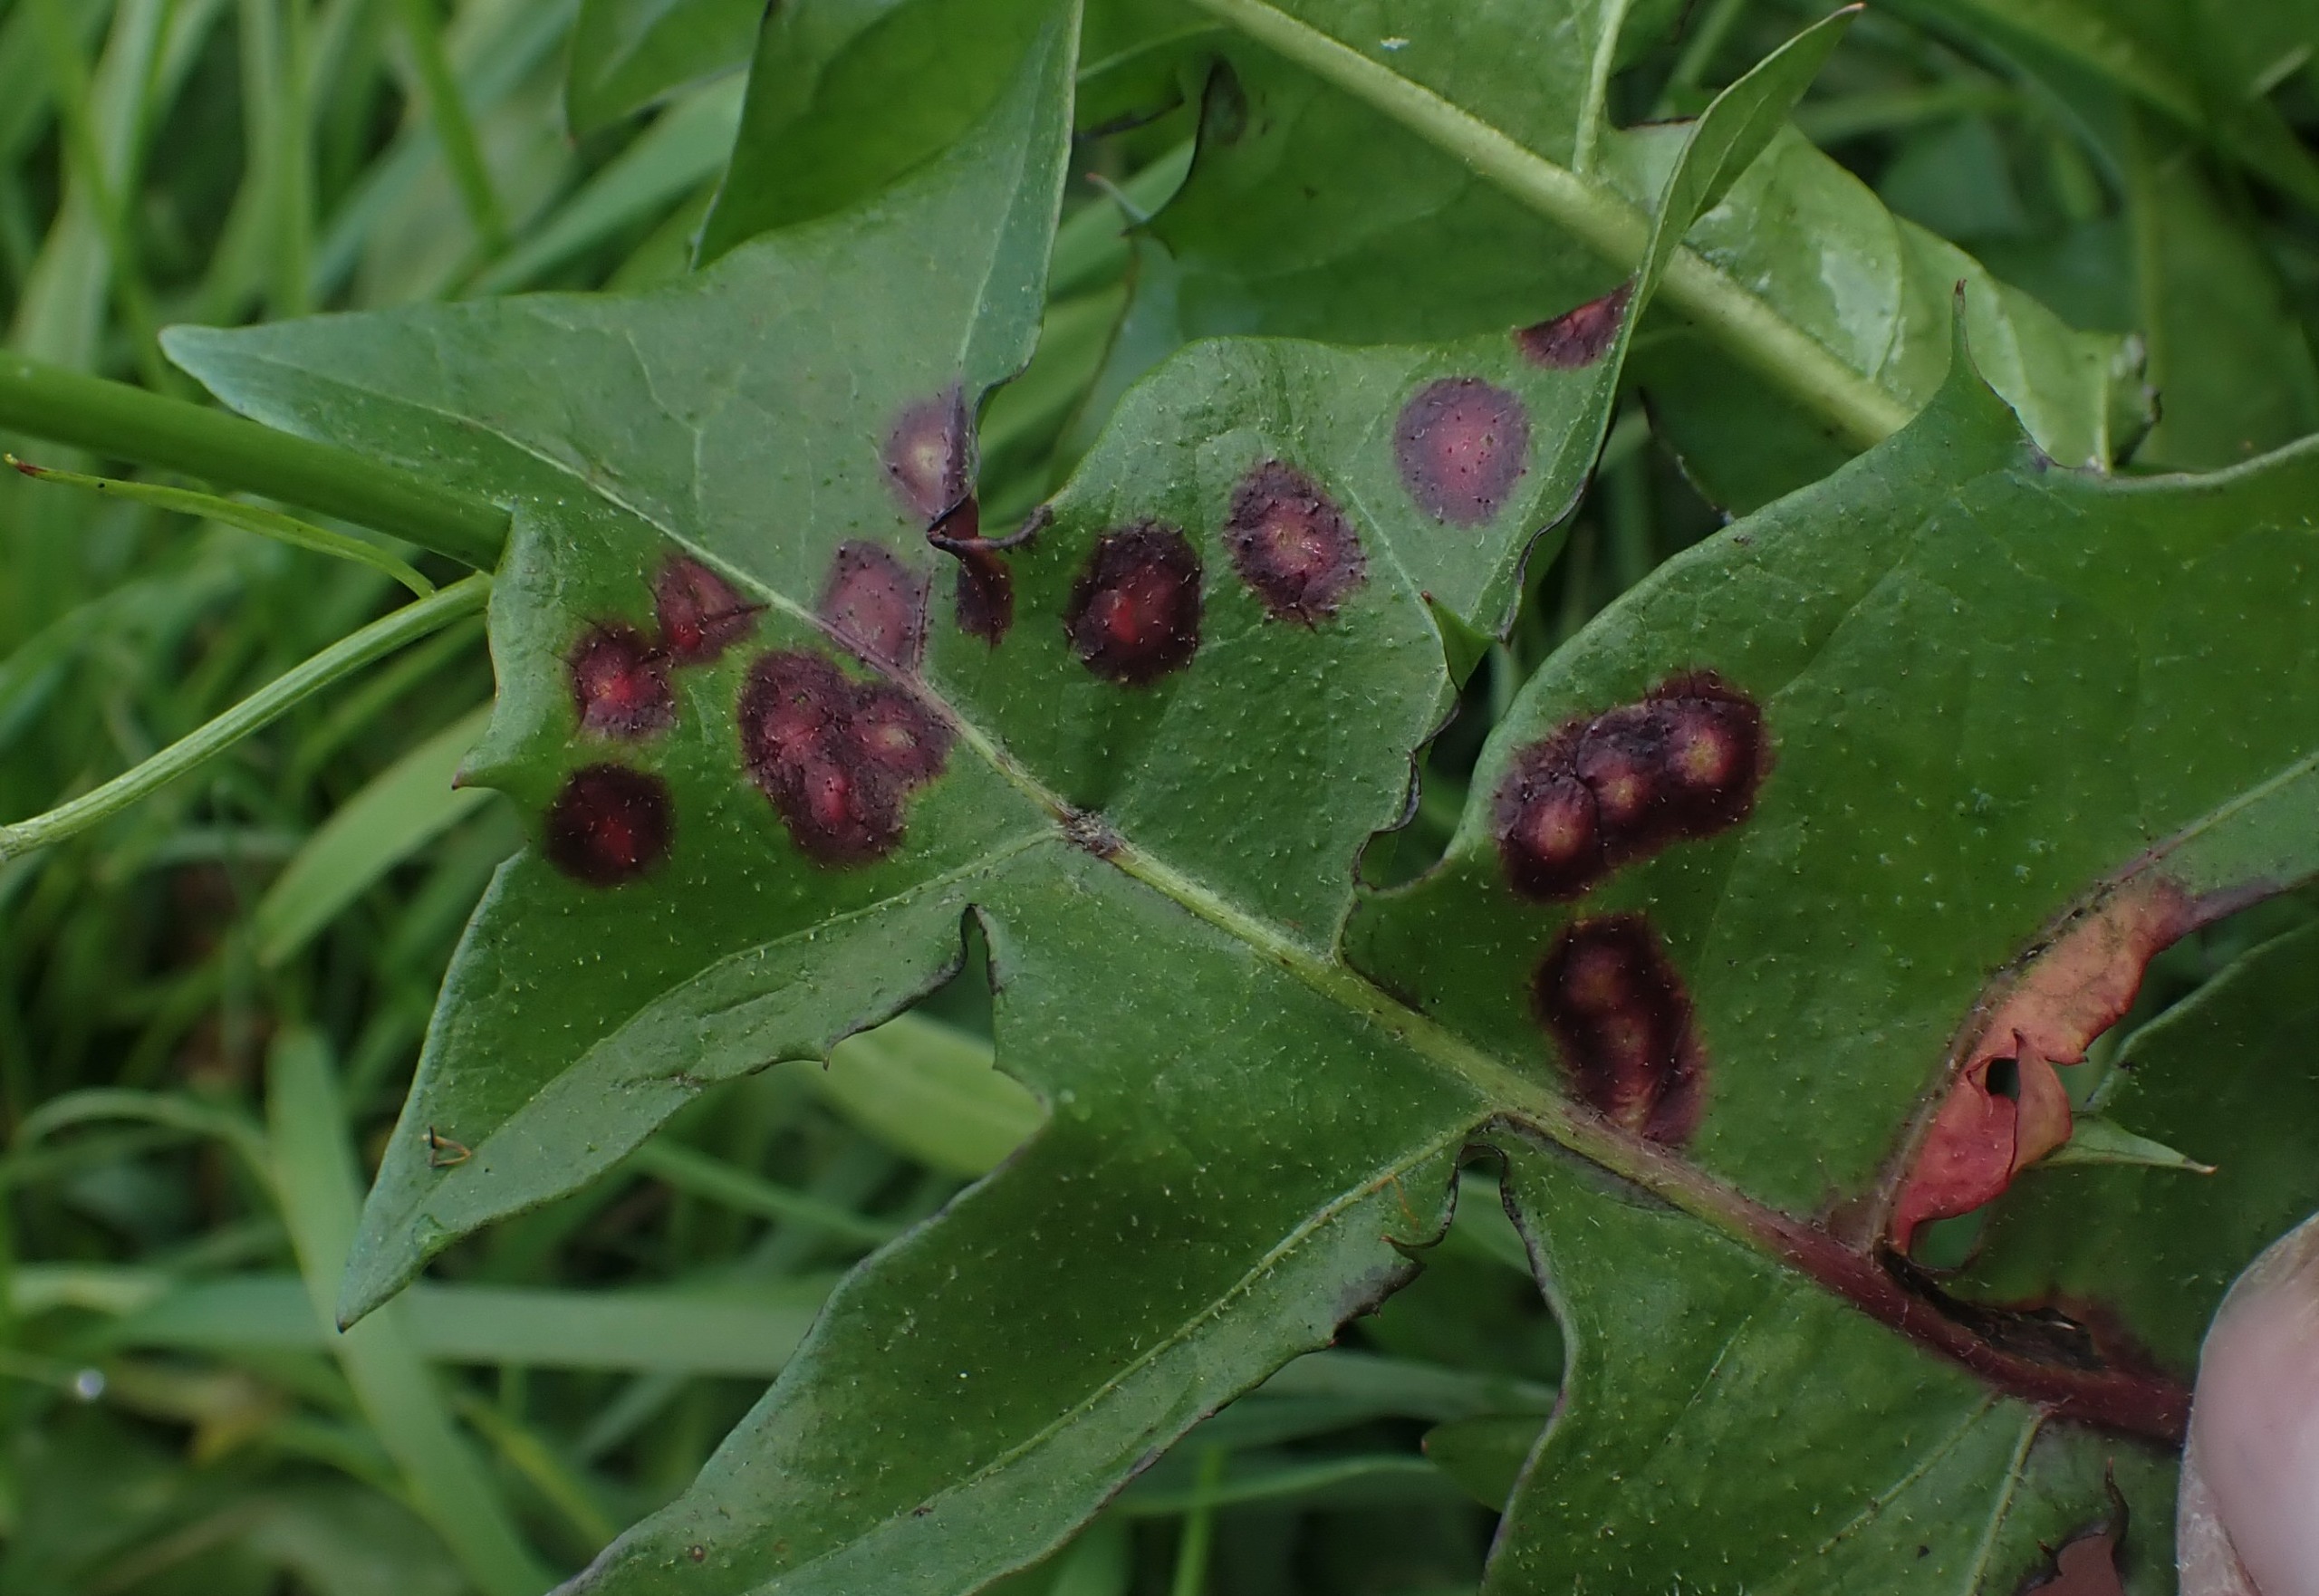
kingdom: Animalia
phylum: Arthropoda
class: Insecta
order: Diptera
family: Cecidomyiidae
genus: Cystiphora
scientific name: Cystiphora taraxaci
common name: Mælkebøttegalmyg
